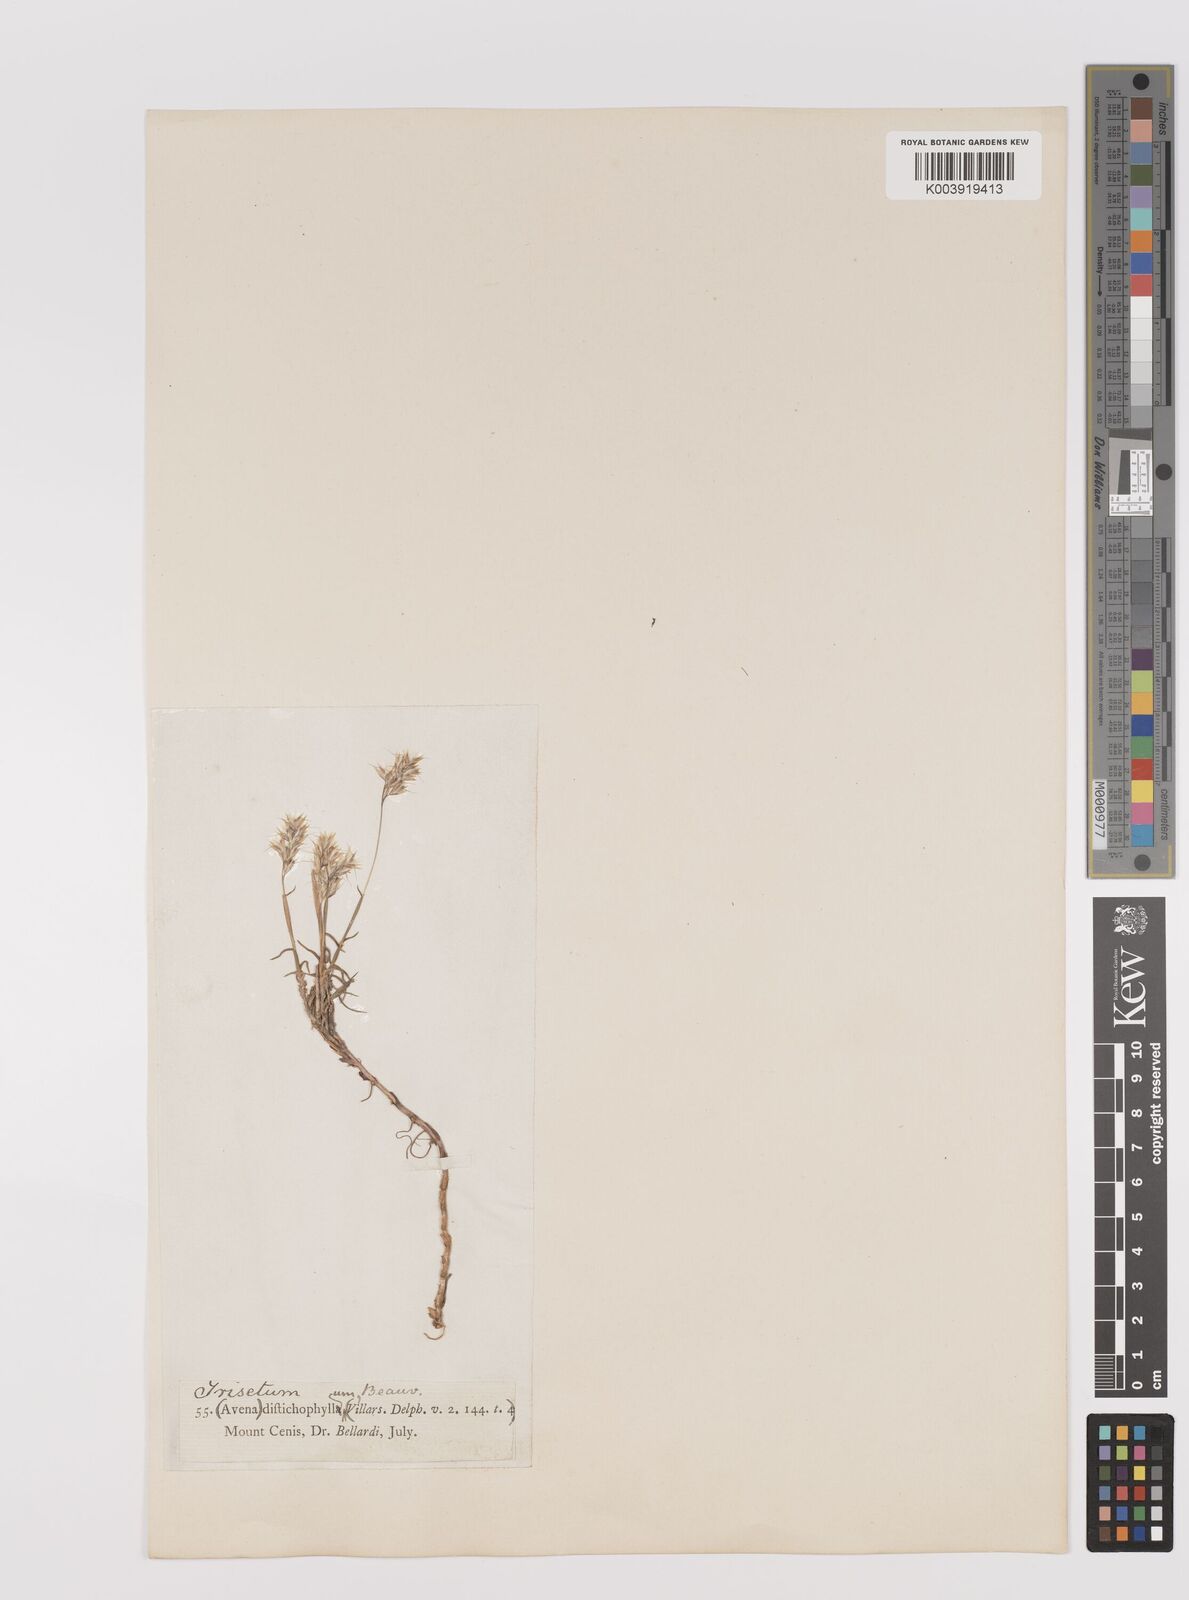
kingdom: Plantae
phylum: Tracheophyta
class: Liliopsida
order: Poales
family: Poaceae
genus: Acrospelion
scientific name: Acrospelion distichophyllum
